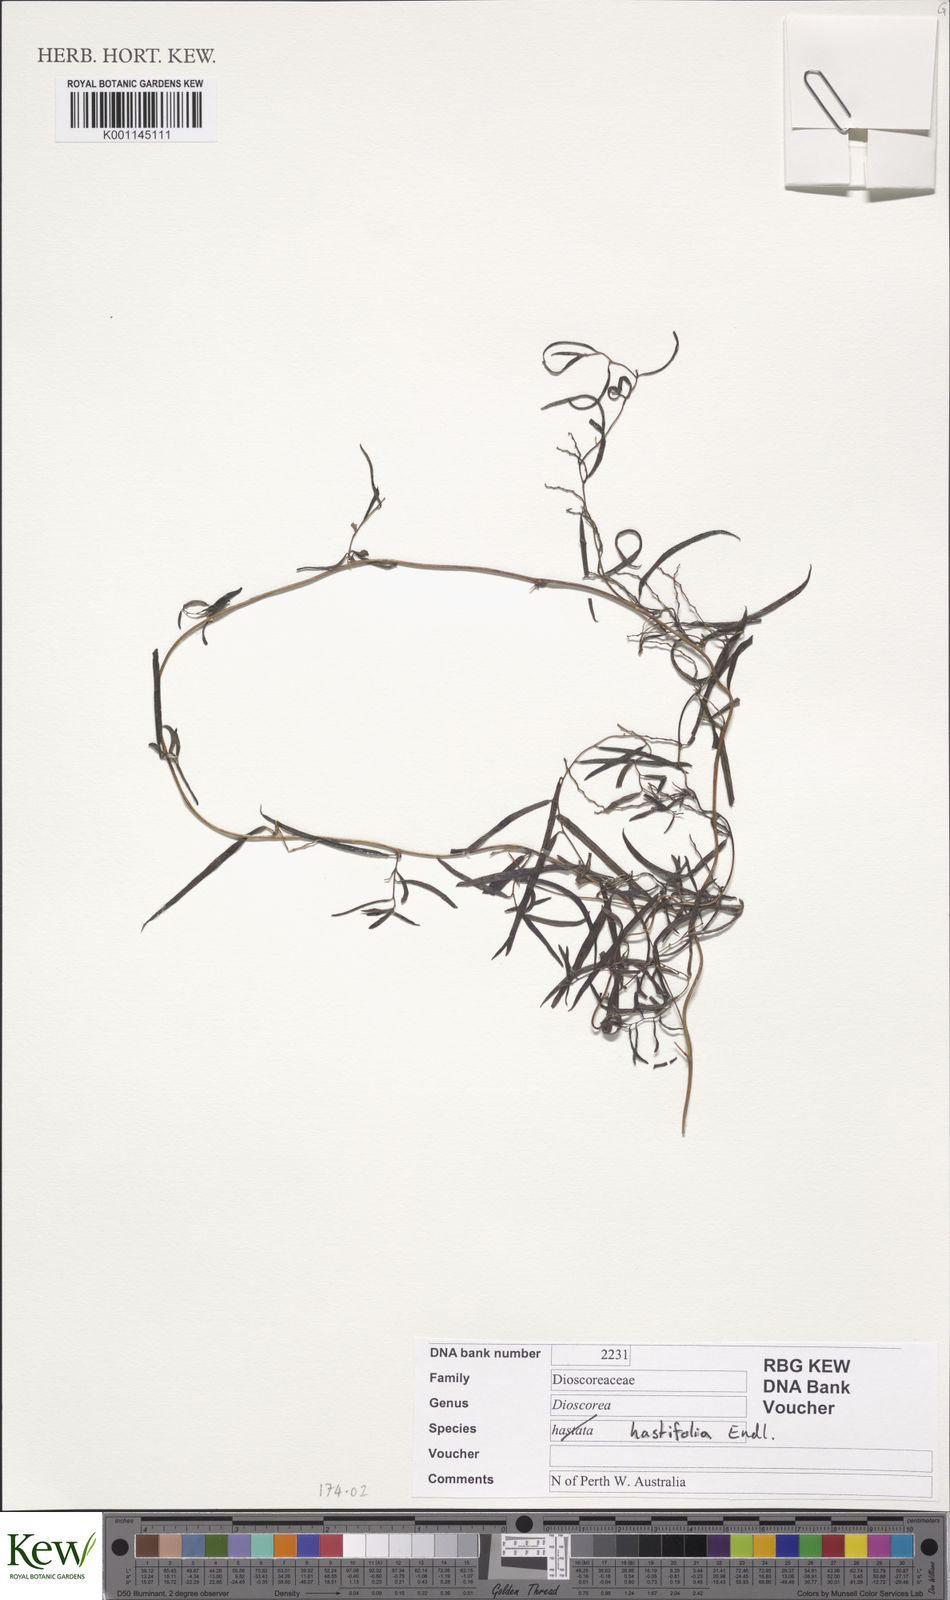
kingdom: Plantae
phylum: Tracheophyta
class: Liliopsida
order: Dioscoreales
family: Dioscoreaceae
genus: Dioscorea
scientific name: Dioscorea hastifolia
